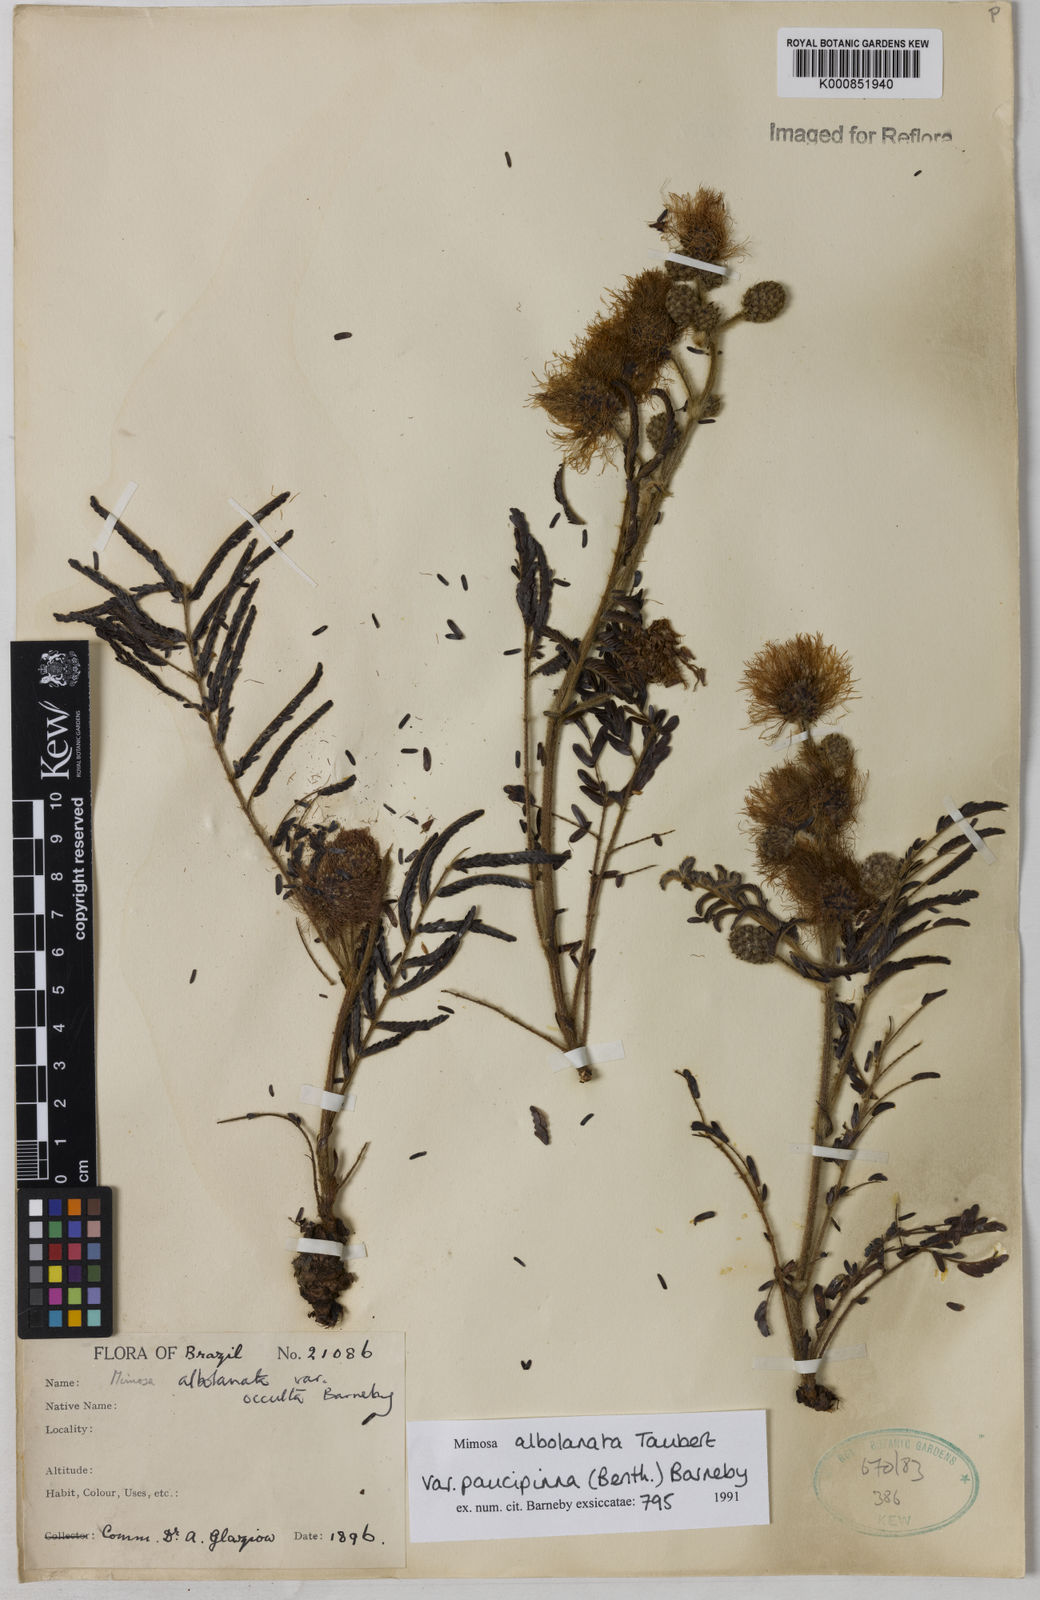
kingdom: Plantae
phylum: Tracheophyta
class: Magnoliopsida
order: Fabales
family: Fabaceae
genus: Mimosa
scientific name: Mimosa albolanata
